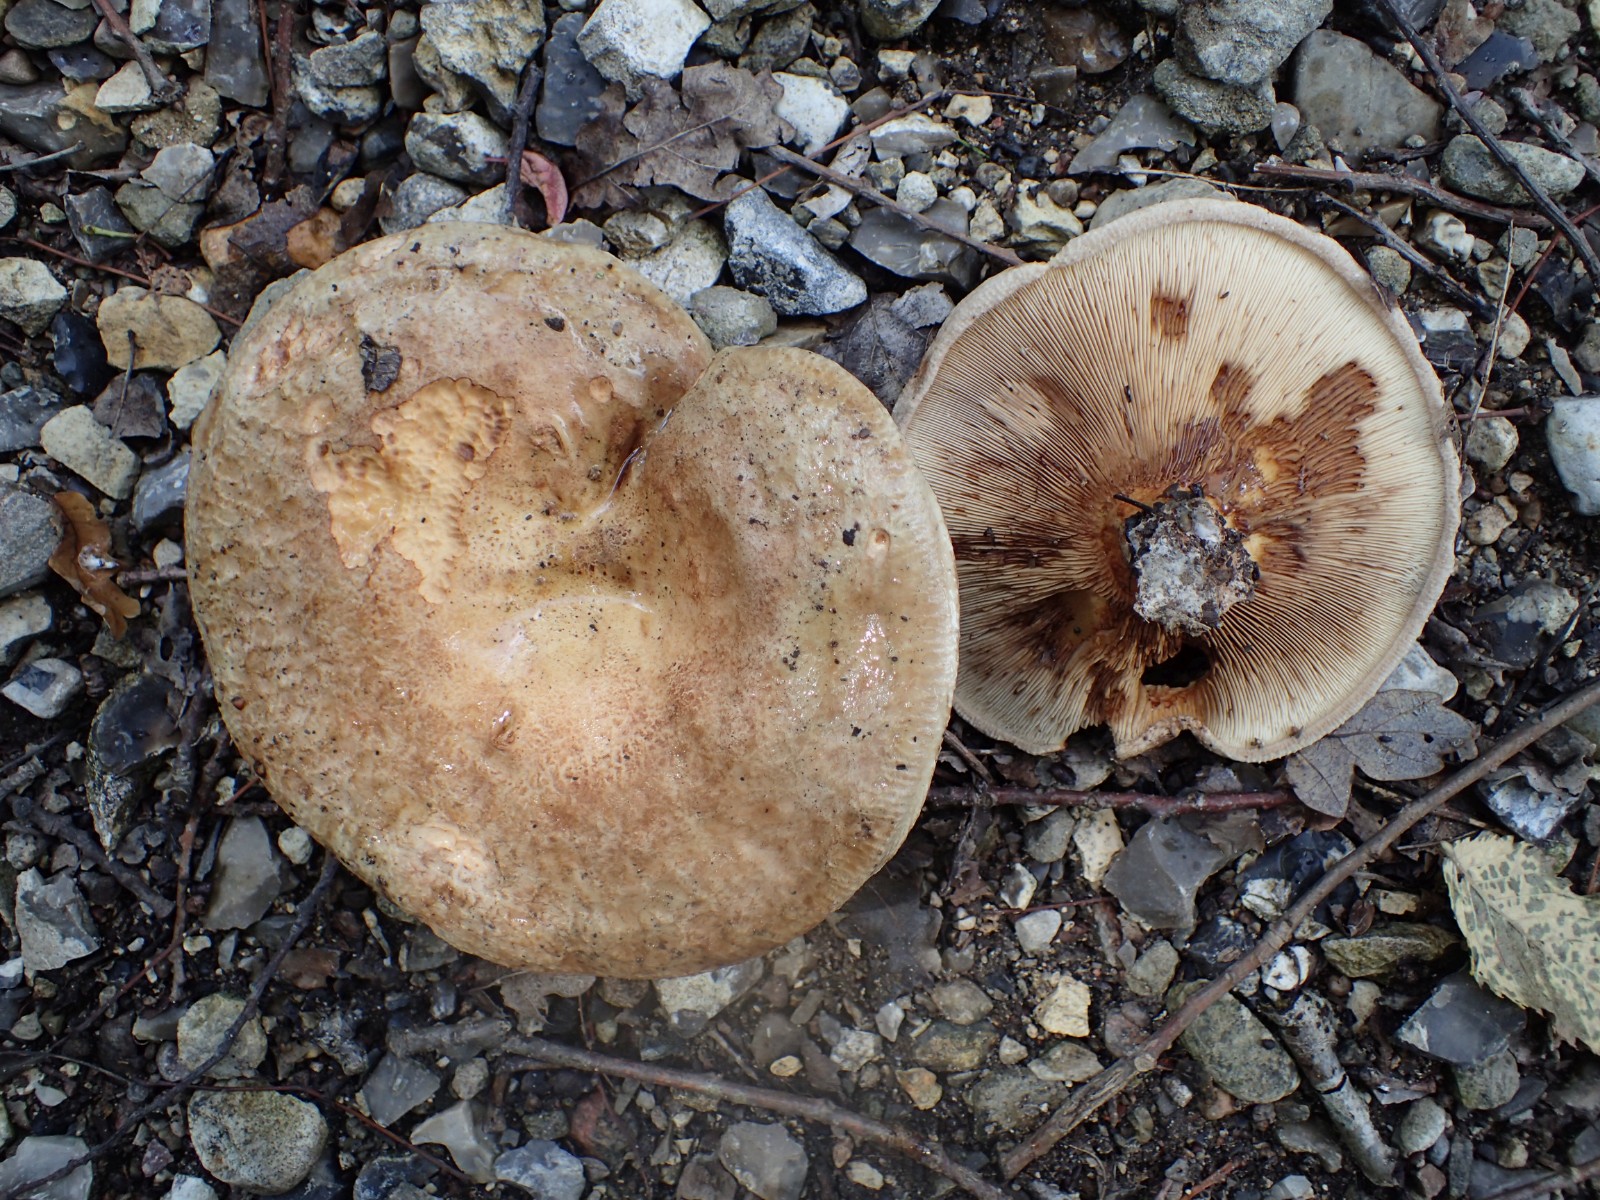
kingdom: Fungi
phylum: Basidiomycota
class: Agaricomycetes
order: Boletales
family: Paxillaceae
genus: Paxillus
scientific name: Paxillus obscurisporus
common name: mahognisporet netbladhat
